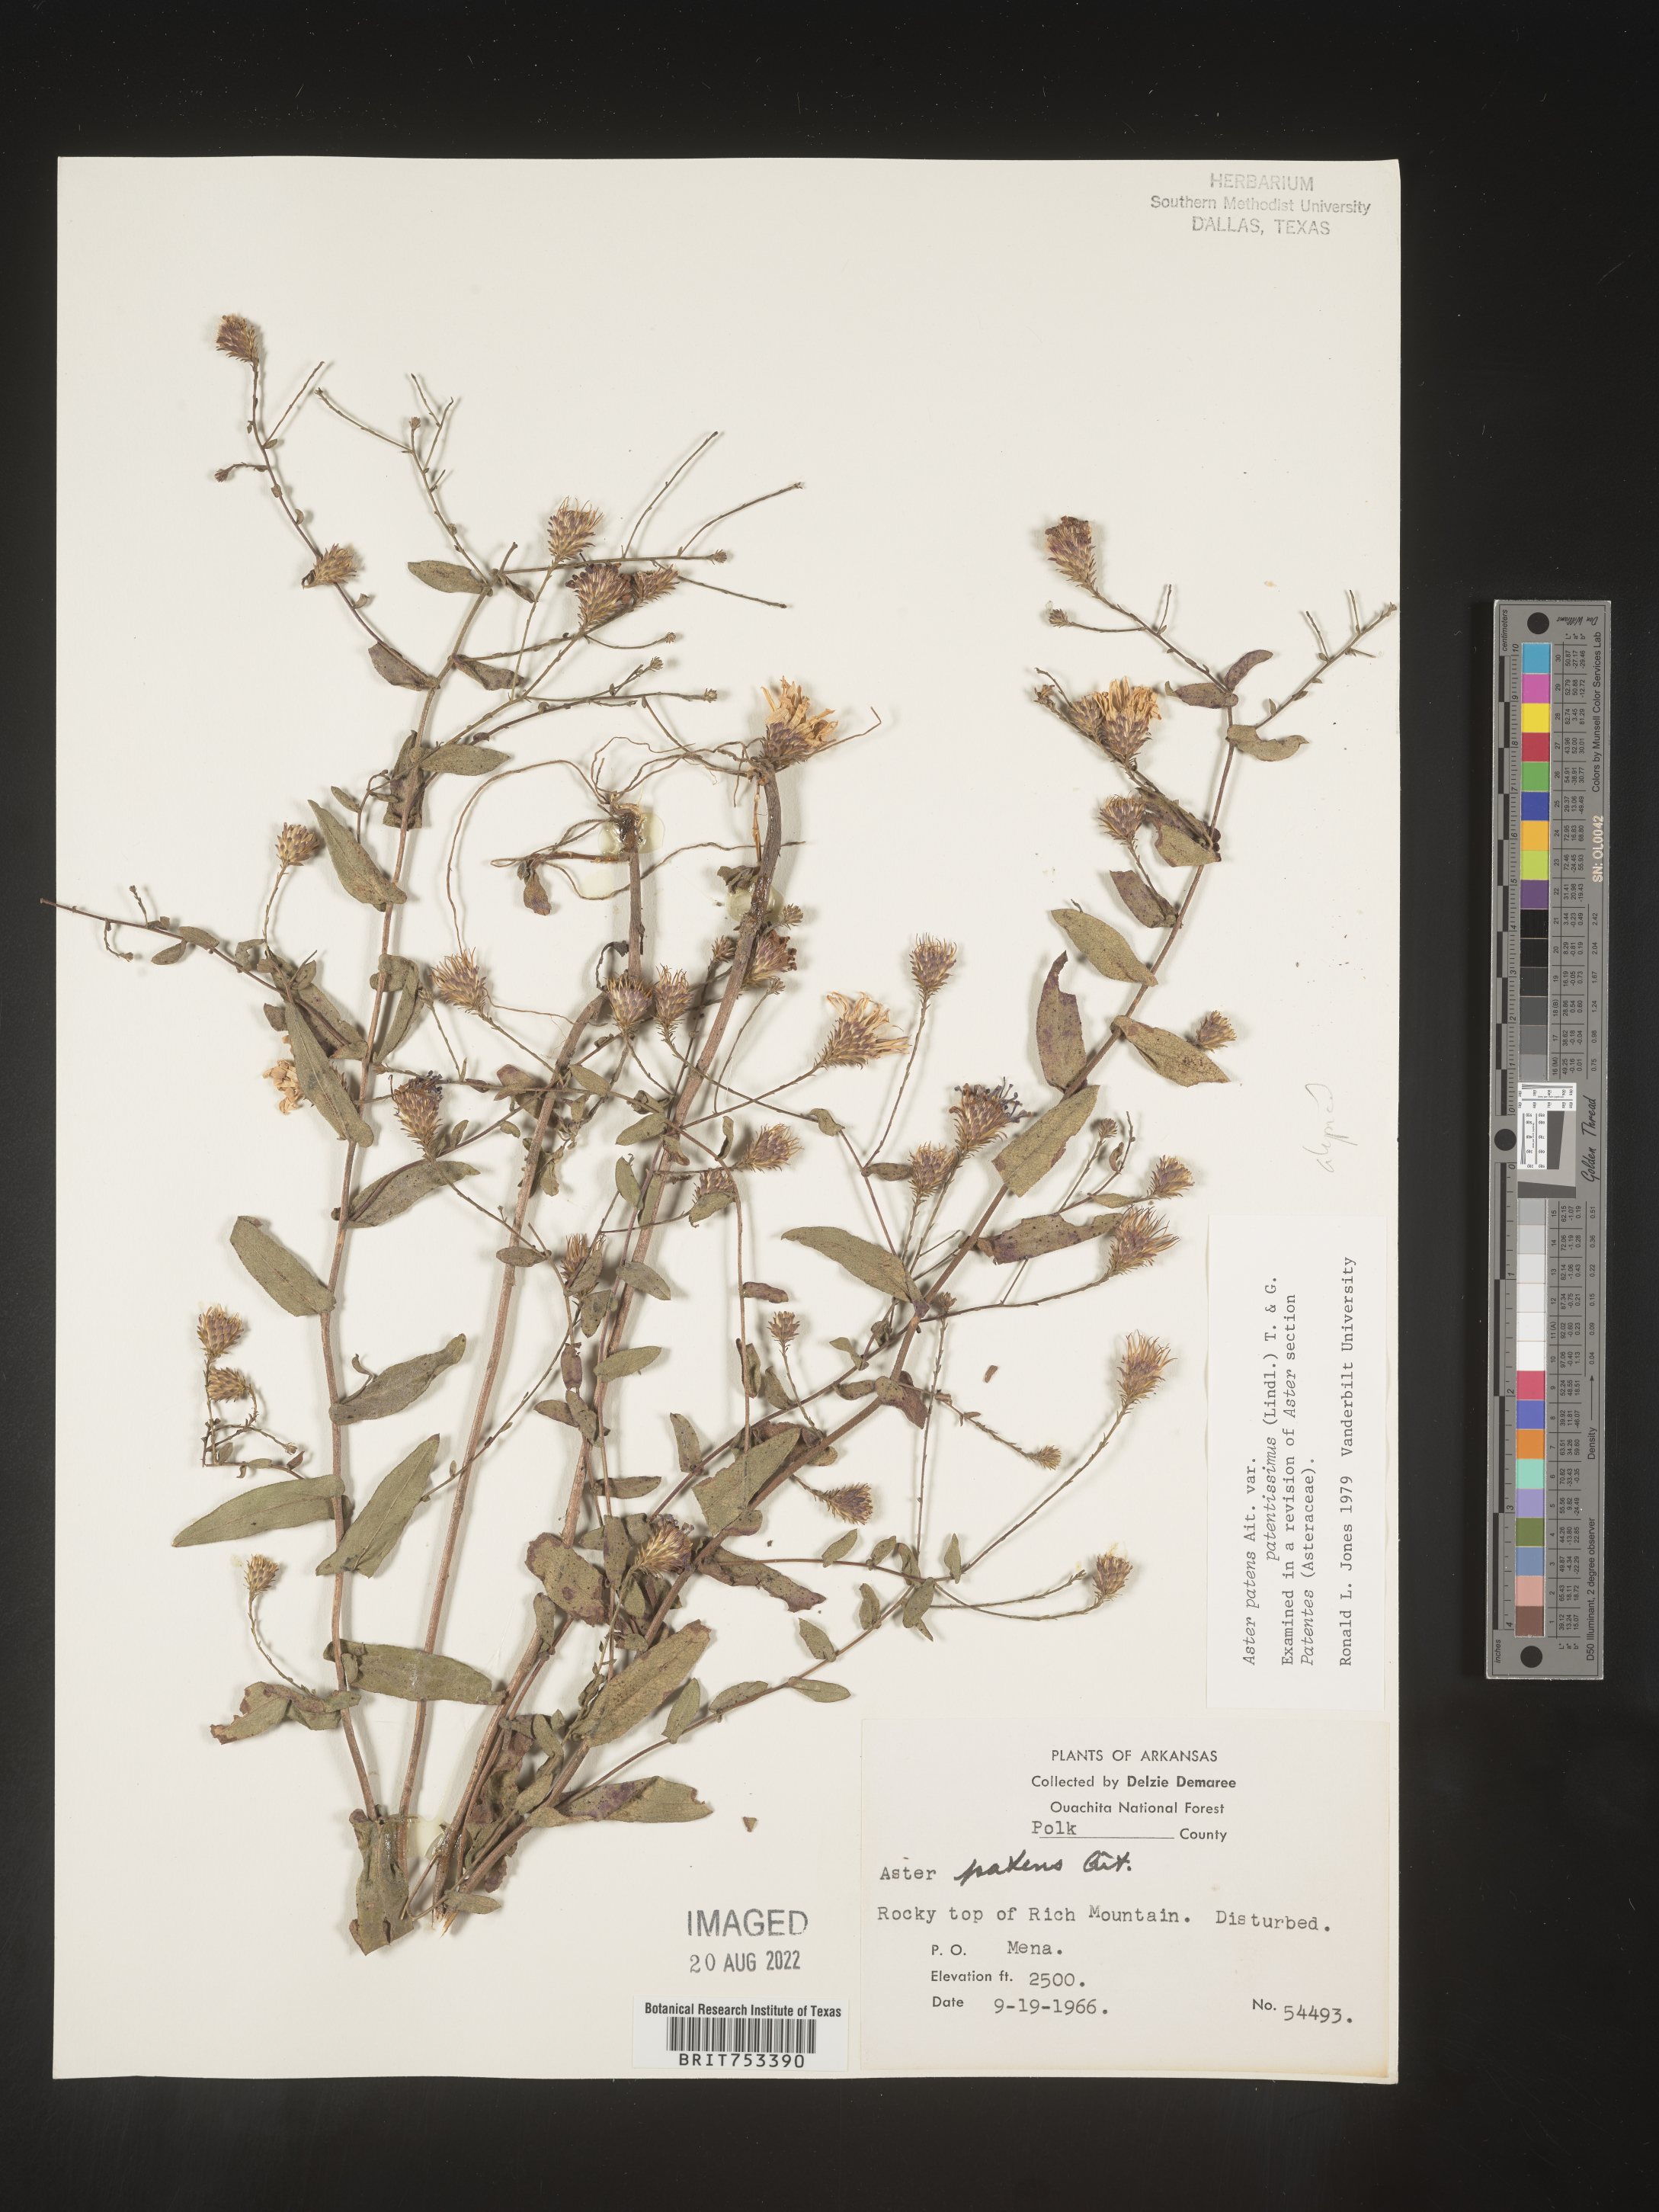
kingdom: Plantae
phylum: Tracheophyta
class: Magnoliopsida
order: Asterales
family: Asteraceae
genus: Symphyotrichum
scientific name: Symphyotrichum patens
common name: Late purple aster
